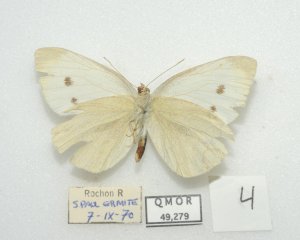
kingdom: Animalia
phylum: Arthropoda
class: Insecta
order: Lepidoptera
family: Pieridae
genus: Pieris
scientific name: Pieris rapae
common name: Cabbage White
